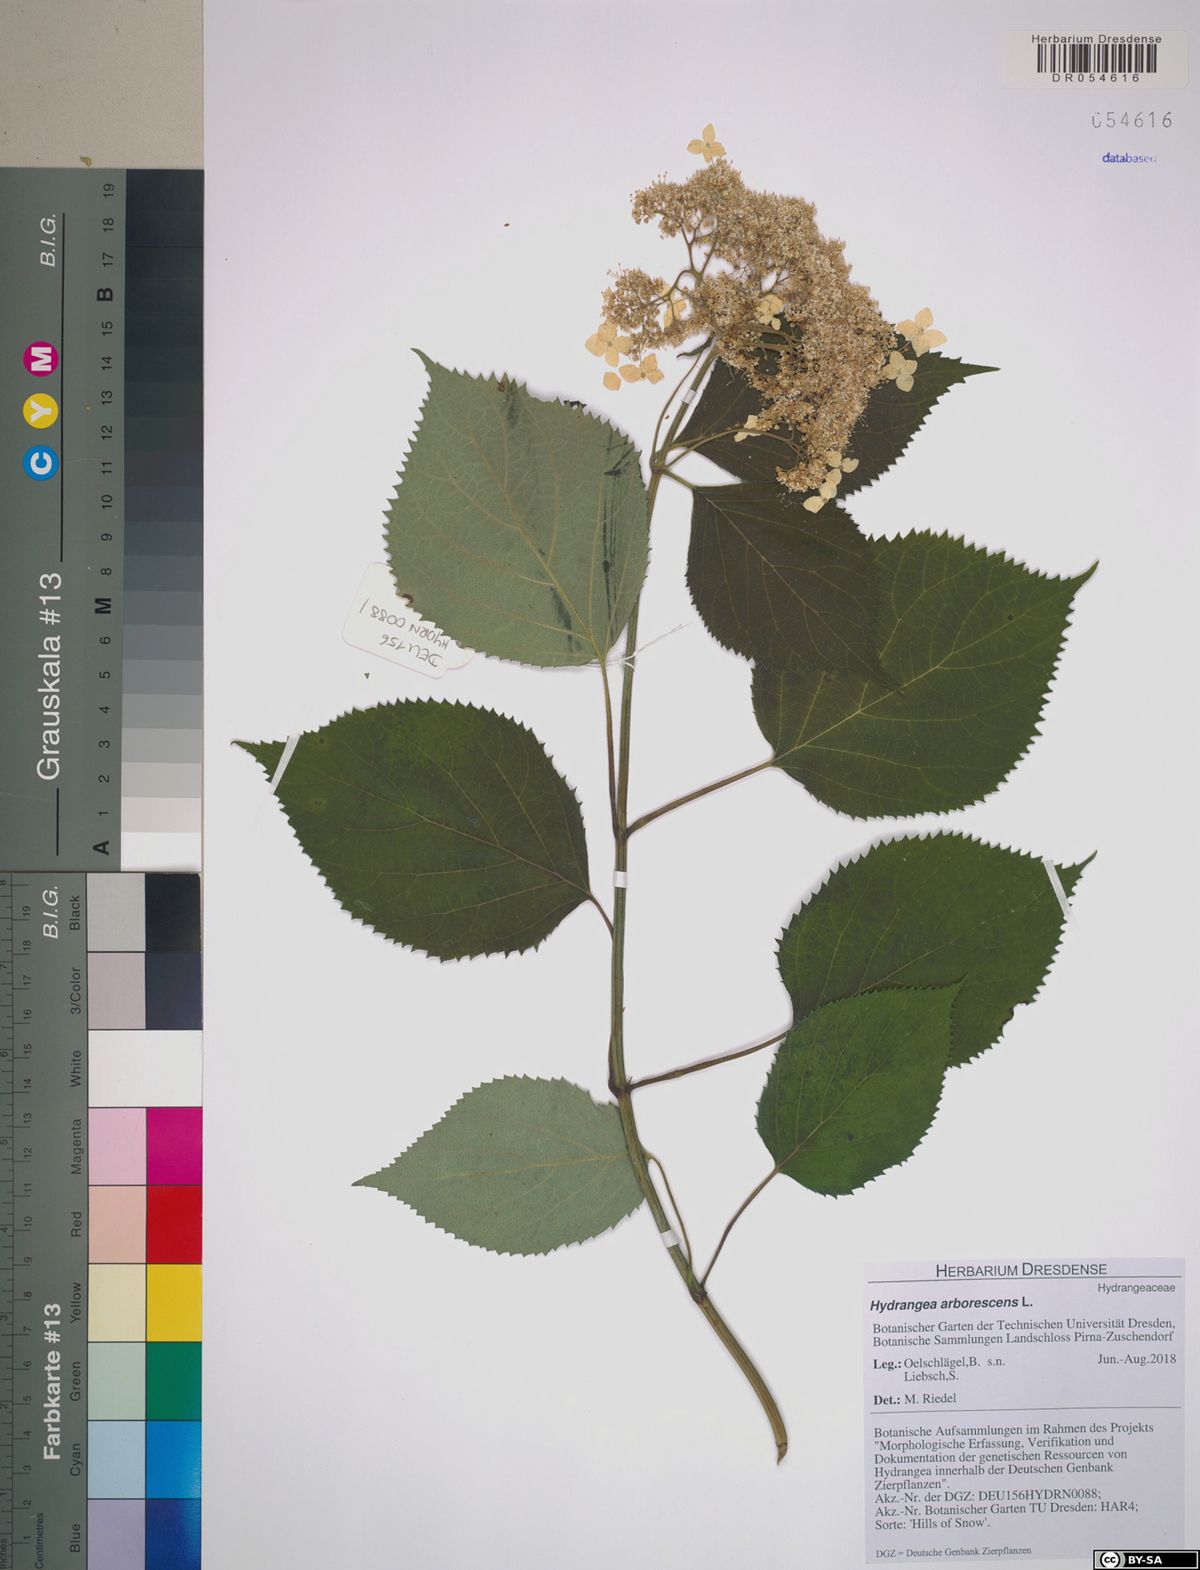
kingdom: Plantae
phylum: Tracheophyta
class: Magnoliopsida
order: Cornales
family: Hydrangeaceae
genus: Hydrangea
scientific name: Hydrangea arborescens
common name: Sevenbark
